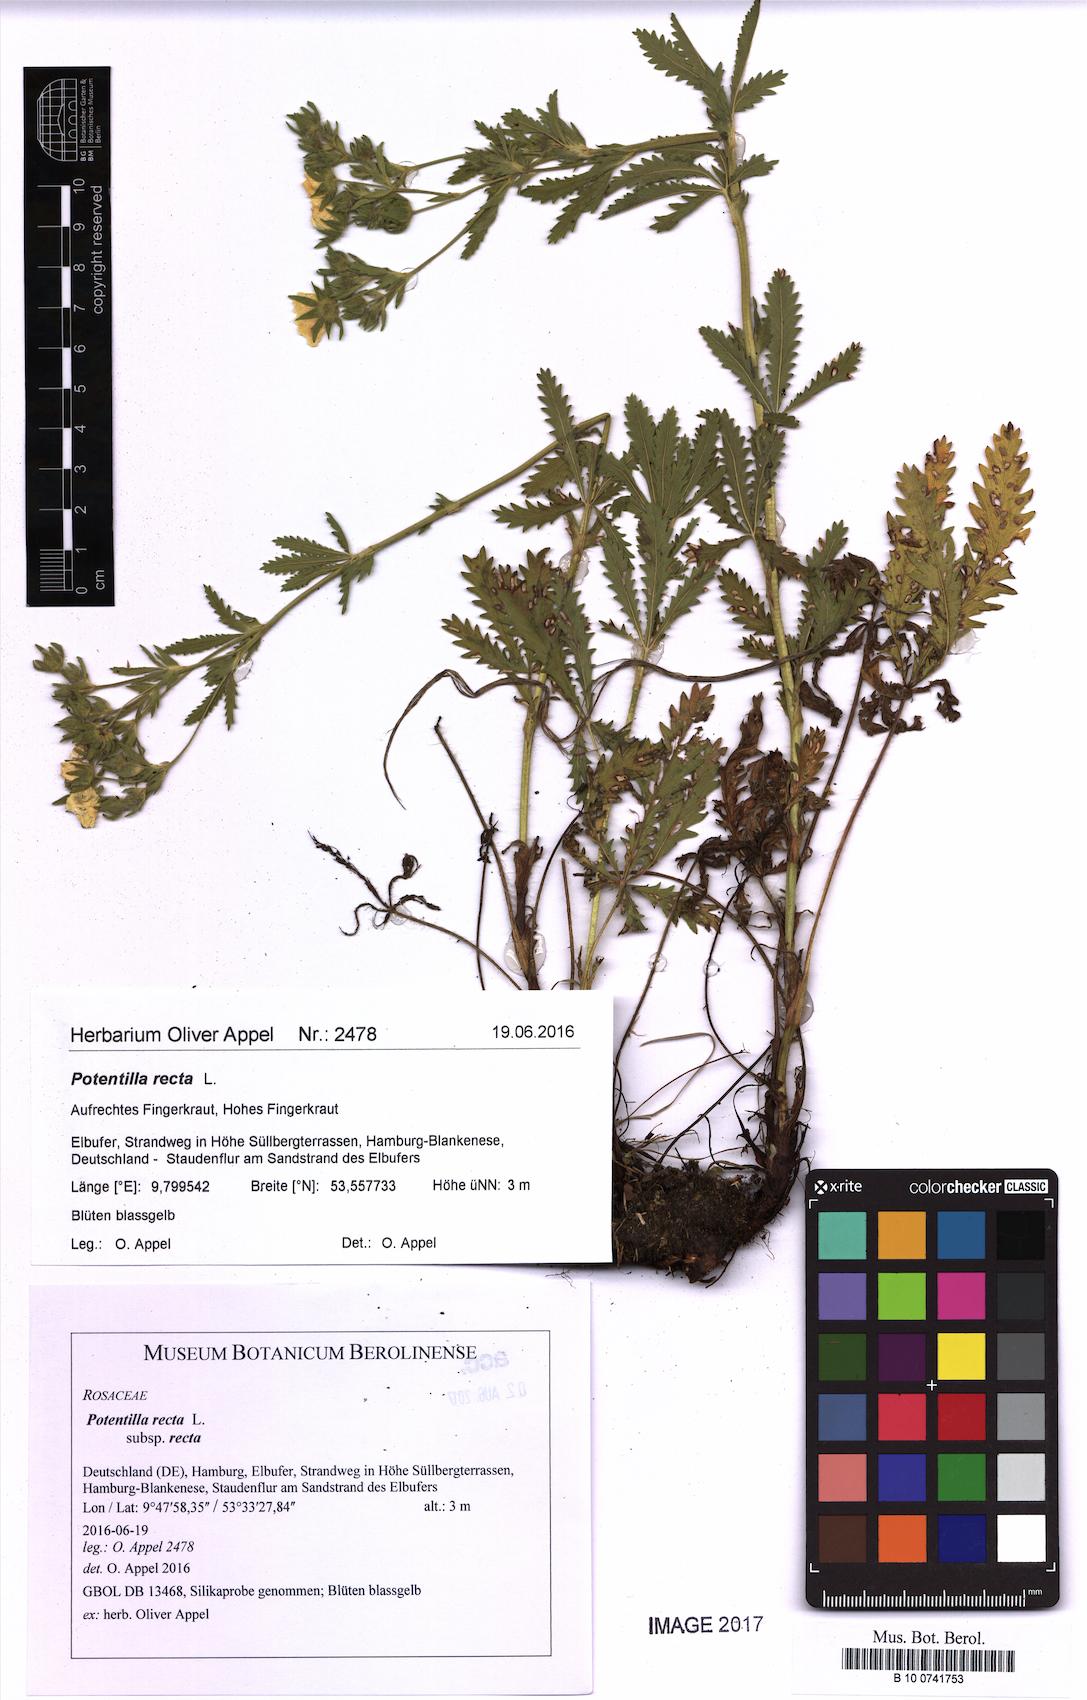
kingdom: Plantae
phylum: Tracheophyta
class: Magnoliopsida
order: Rosales
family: Rosaceae
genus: Potentilla
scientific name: Potentilla recta
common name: Sulphur cinquefoil
